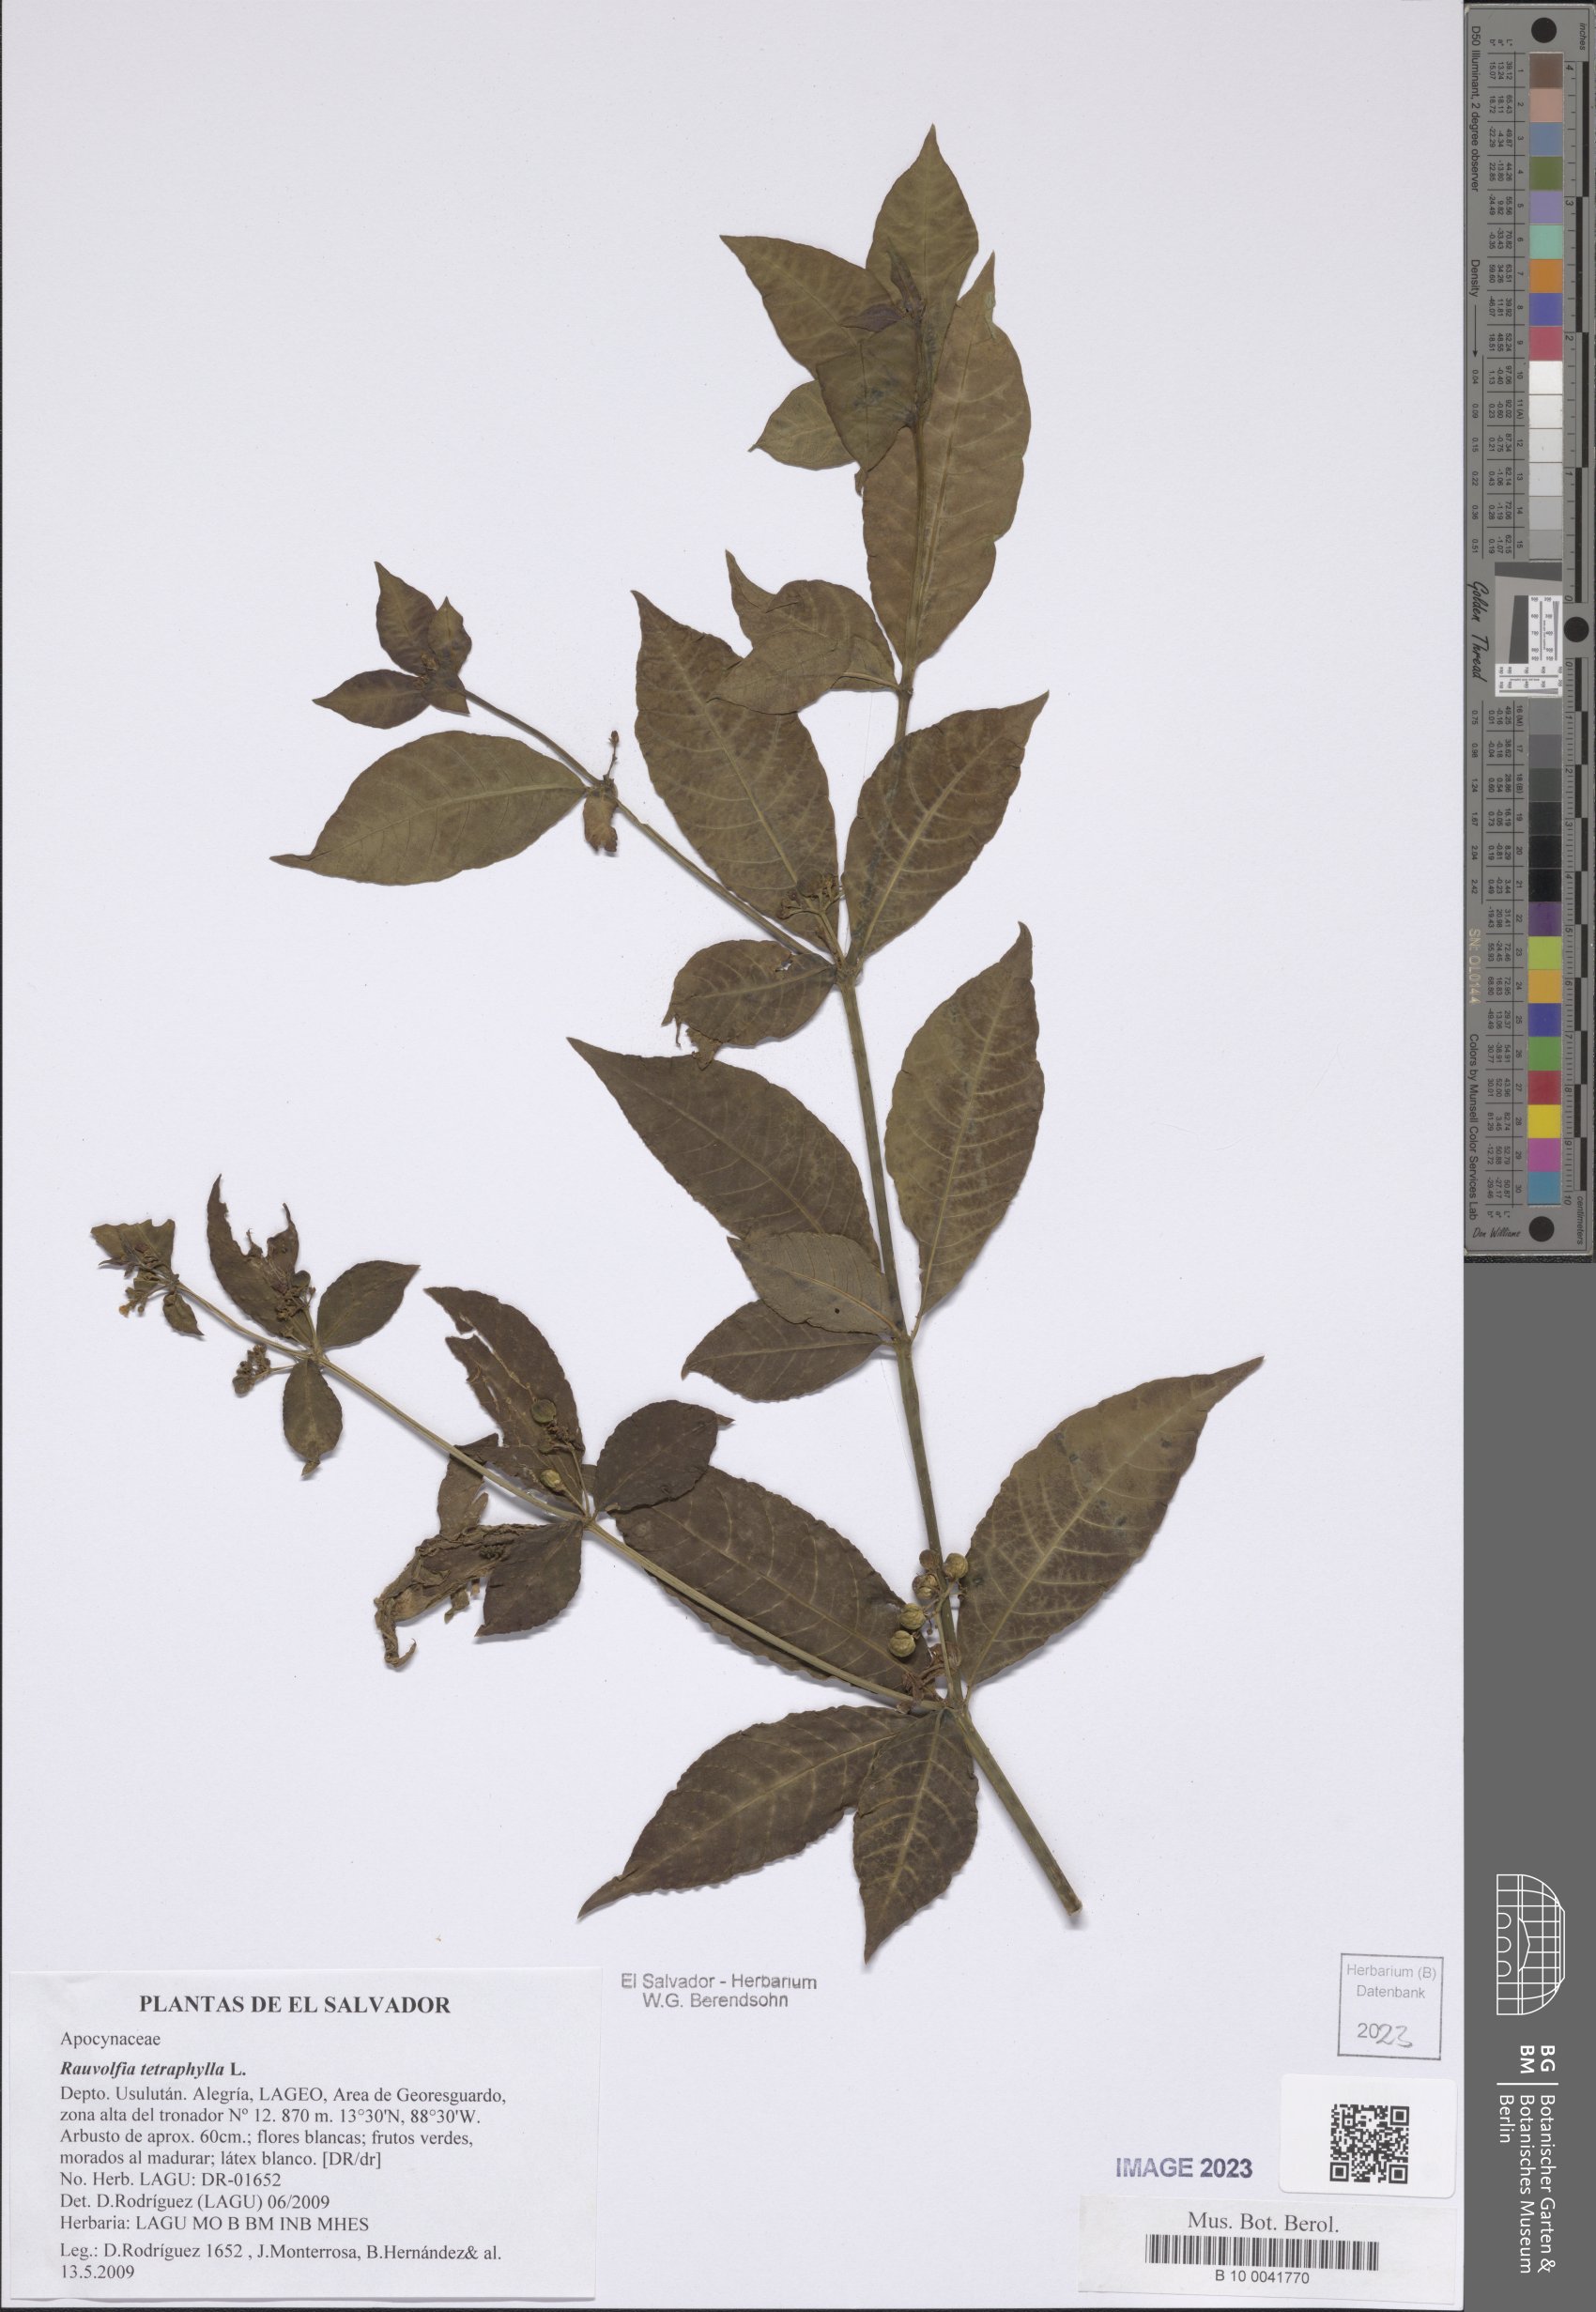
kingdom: Plantae
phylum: Tracheophyta
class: Magnoliopsida
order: Gentianales
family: Apocynaceae
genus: Rauvolfia
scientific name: Rauvolfia tetraphylla
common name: Four-leaf devil-pepper
